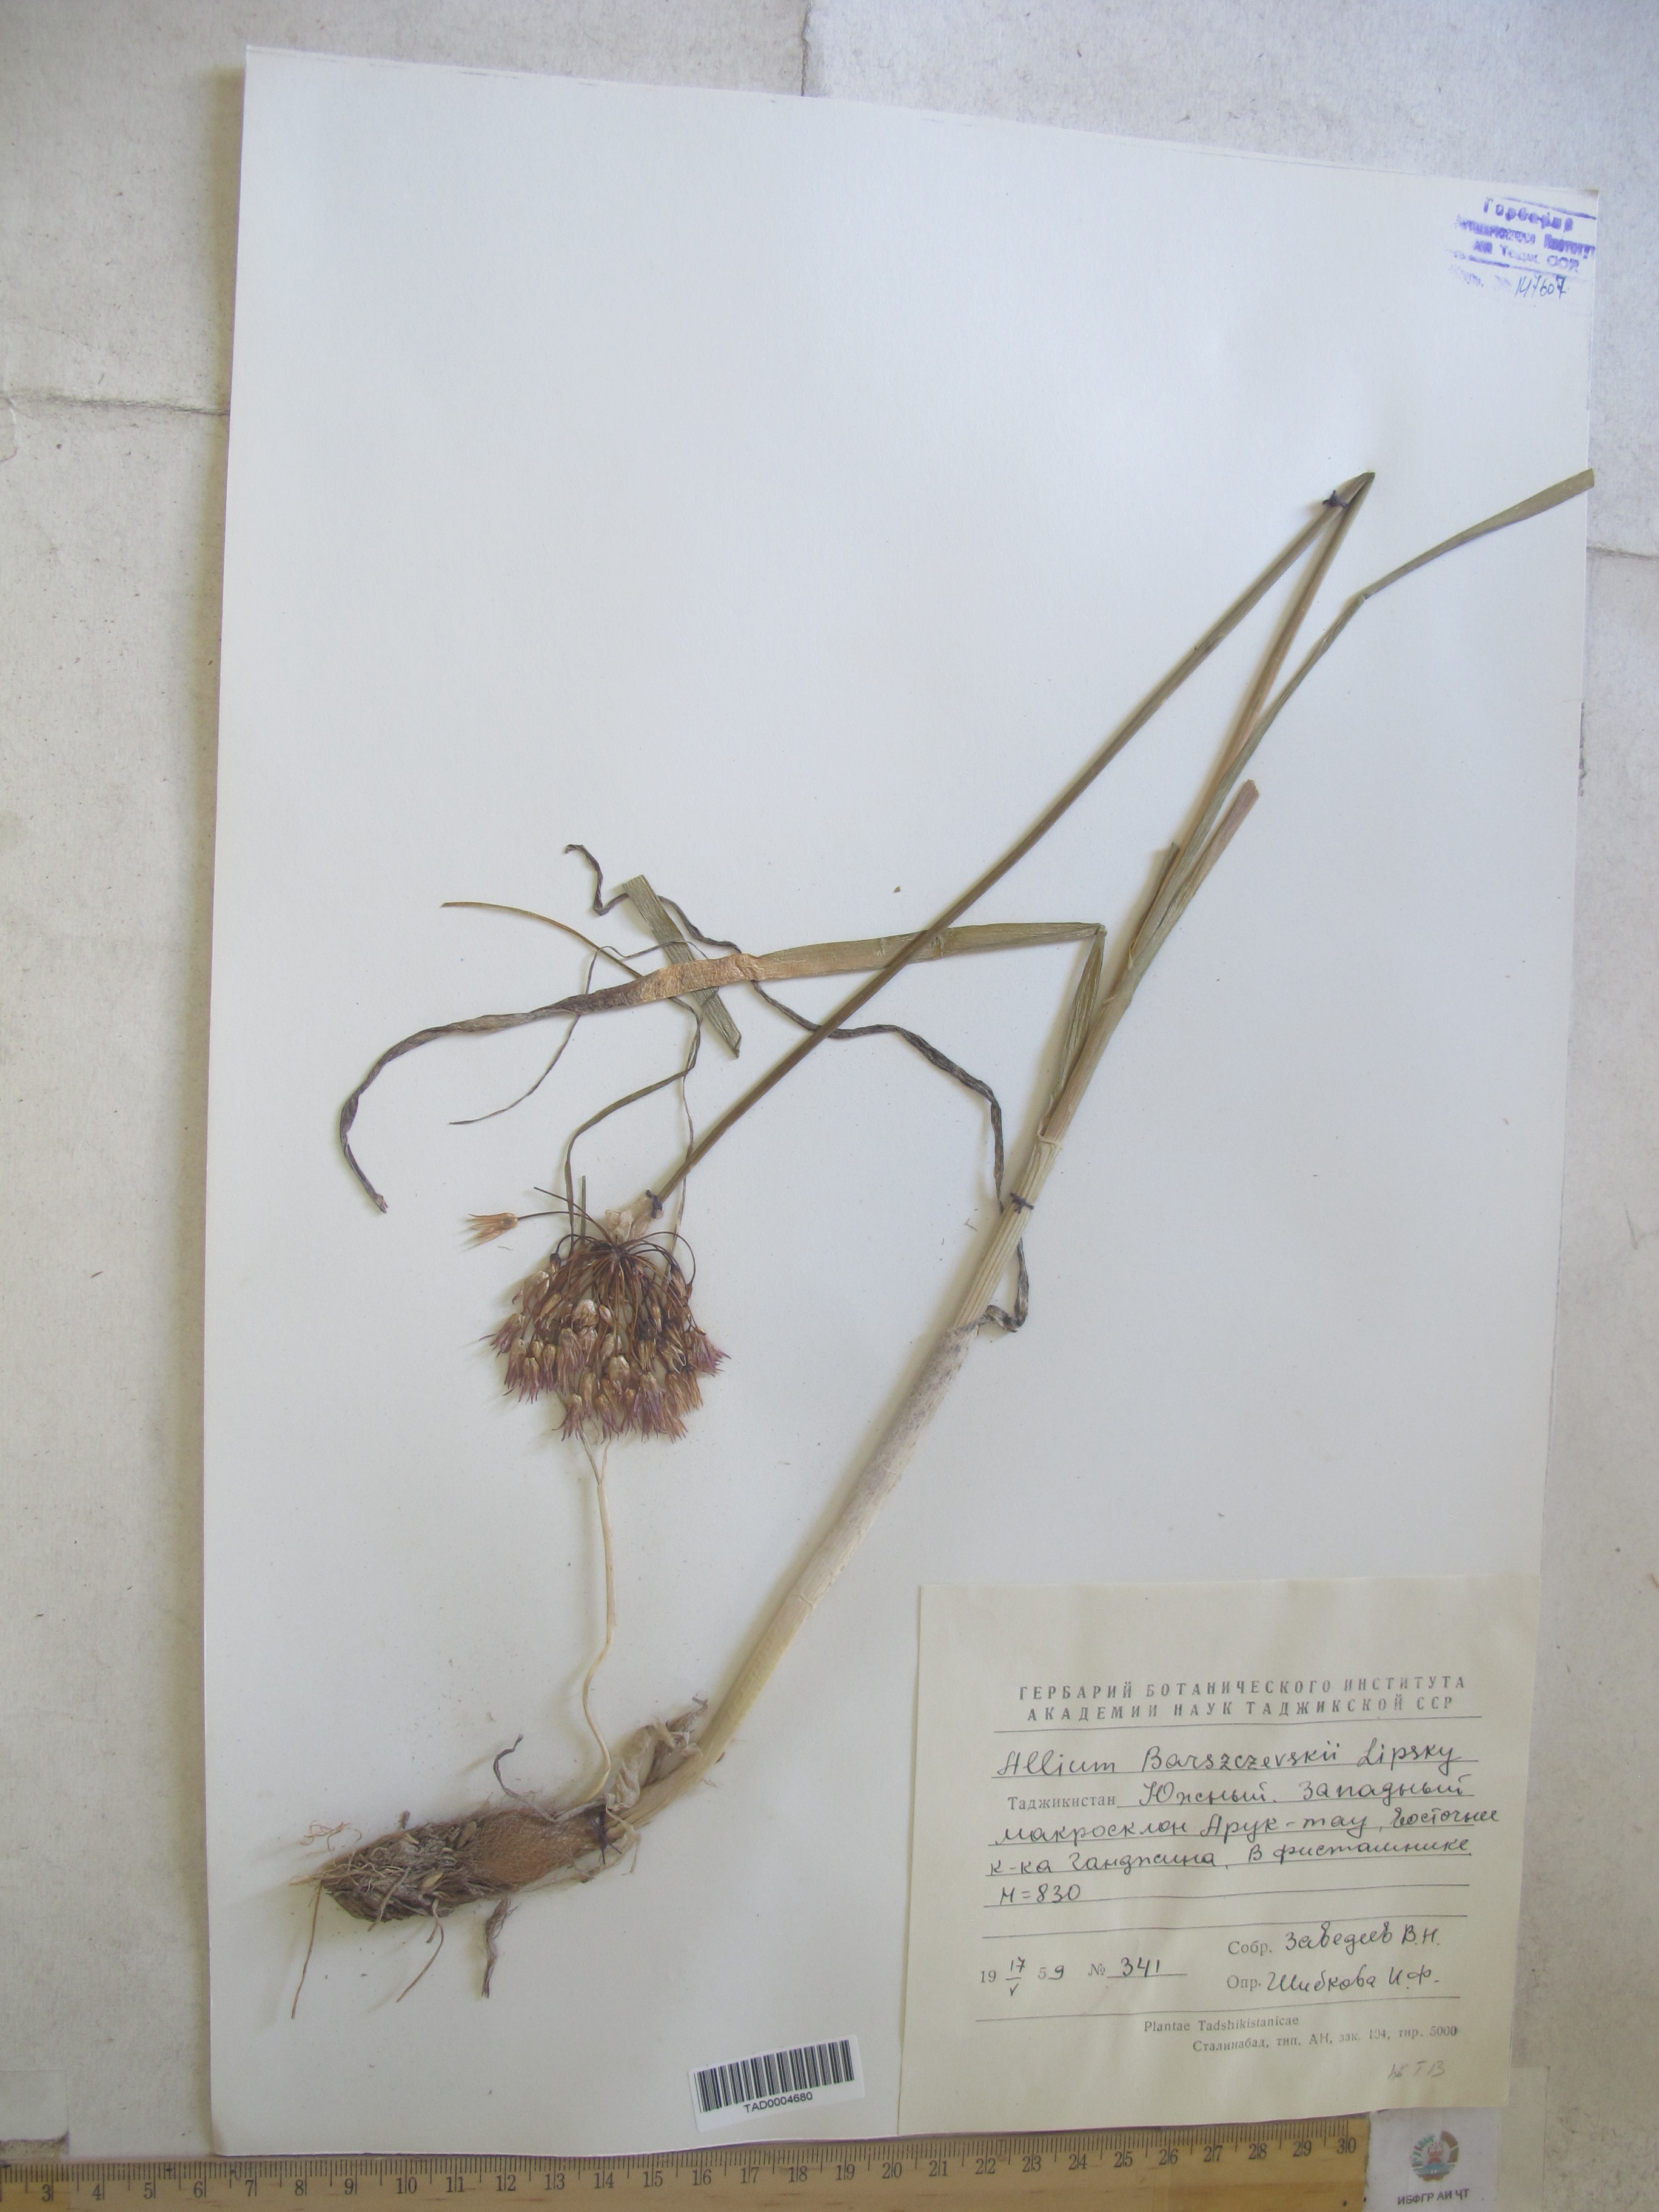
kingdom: Plantae
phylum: Tracheophyta
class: Liliopsida
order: Asparagales
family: Amaryllidaceae
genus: Allium
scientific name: Allium barsczewskii
